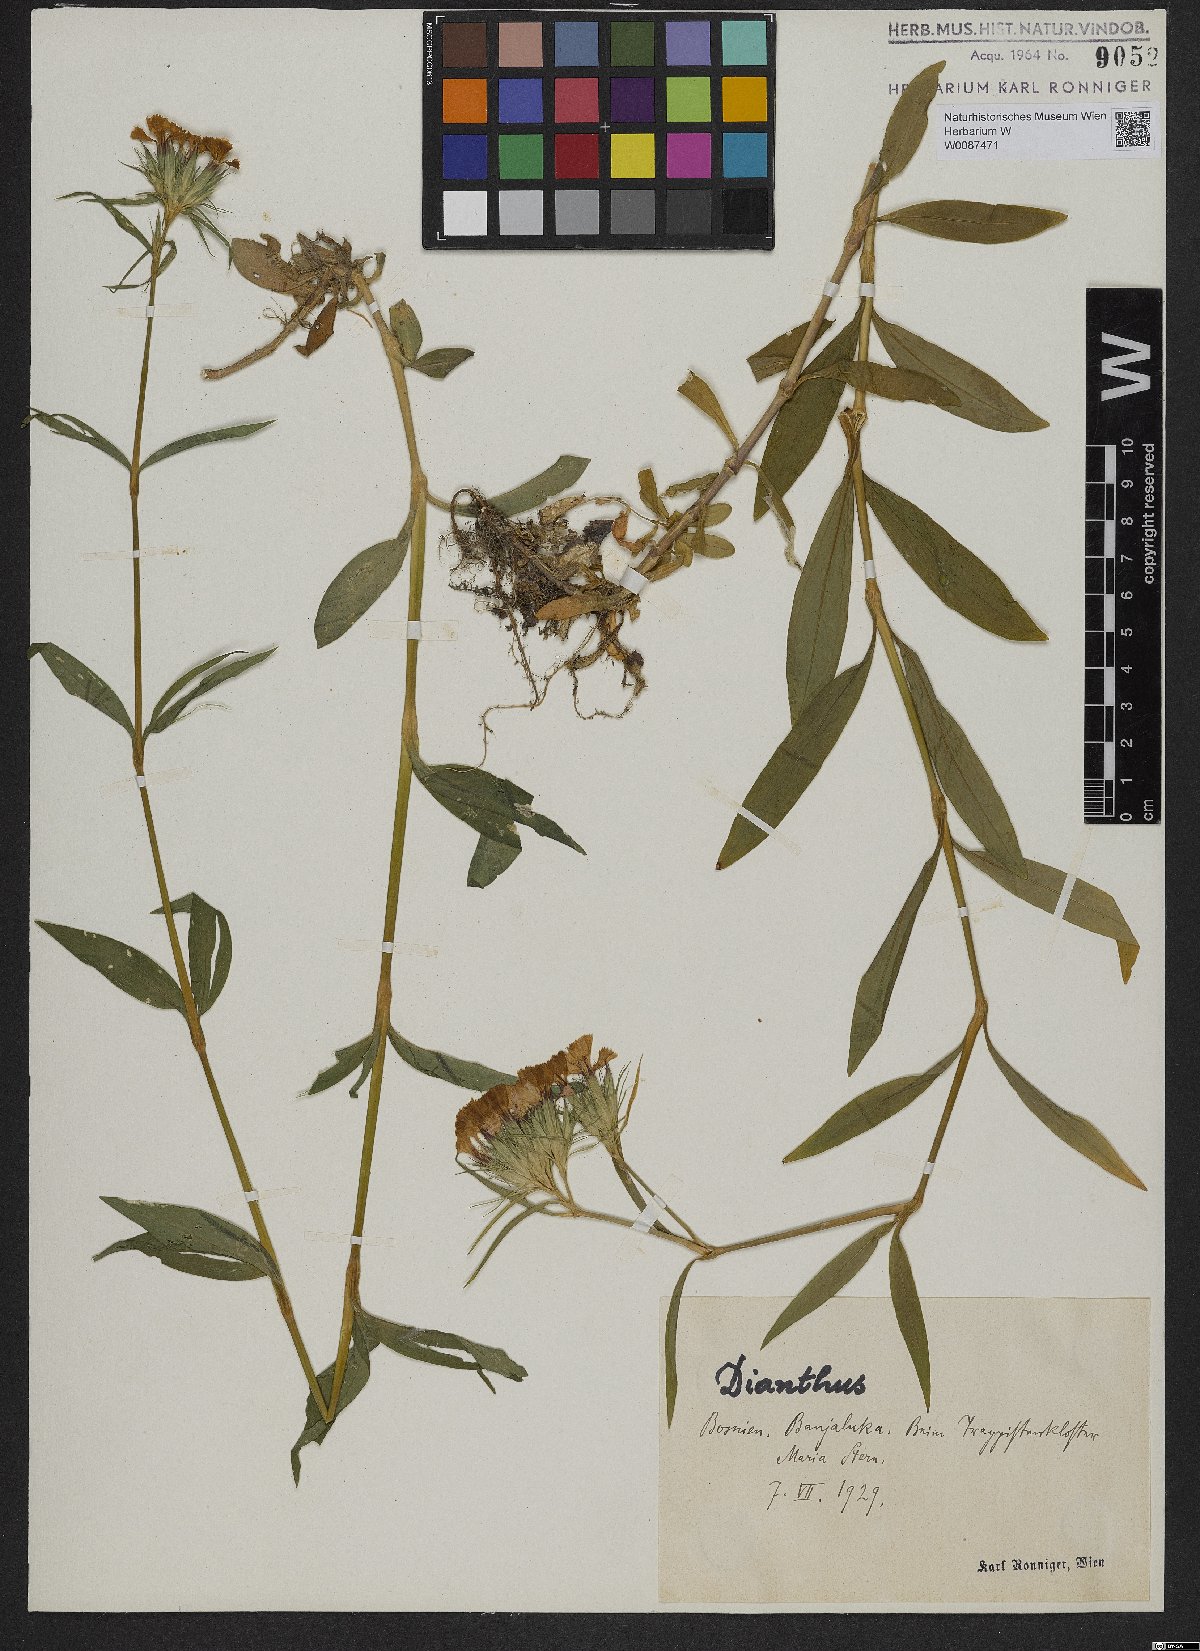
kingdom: Plantae
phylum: Tracheophyta
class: Magnoliopsida
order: Caryophyllales
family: Caryophyllaceae
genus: Dianthus
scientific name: Dianthus barbatus
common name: Sweet-william
